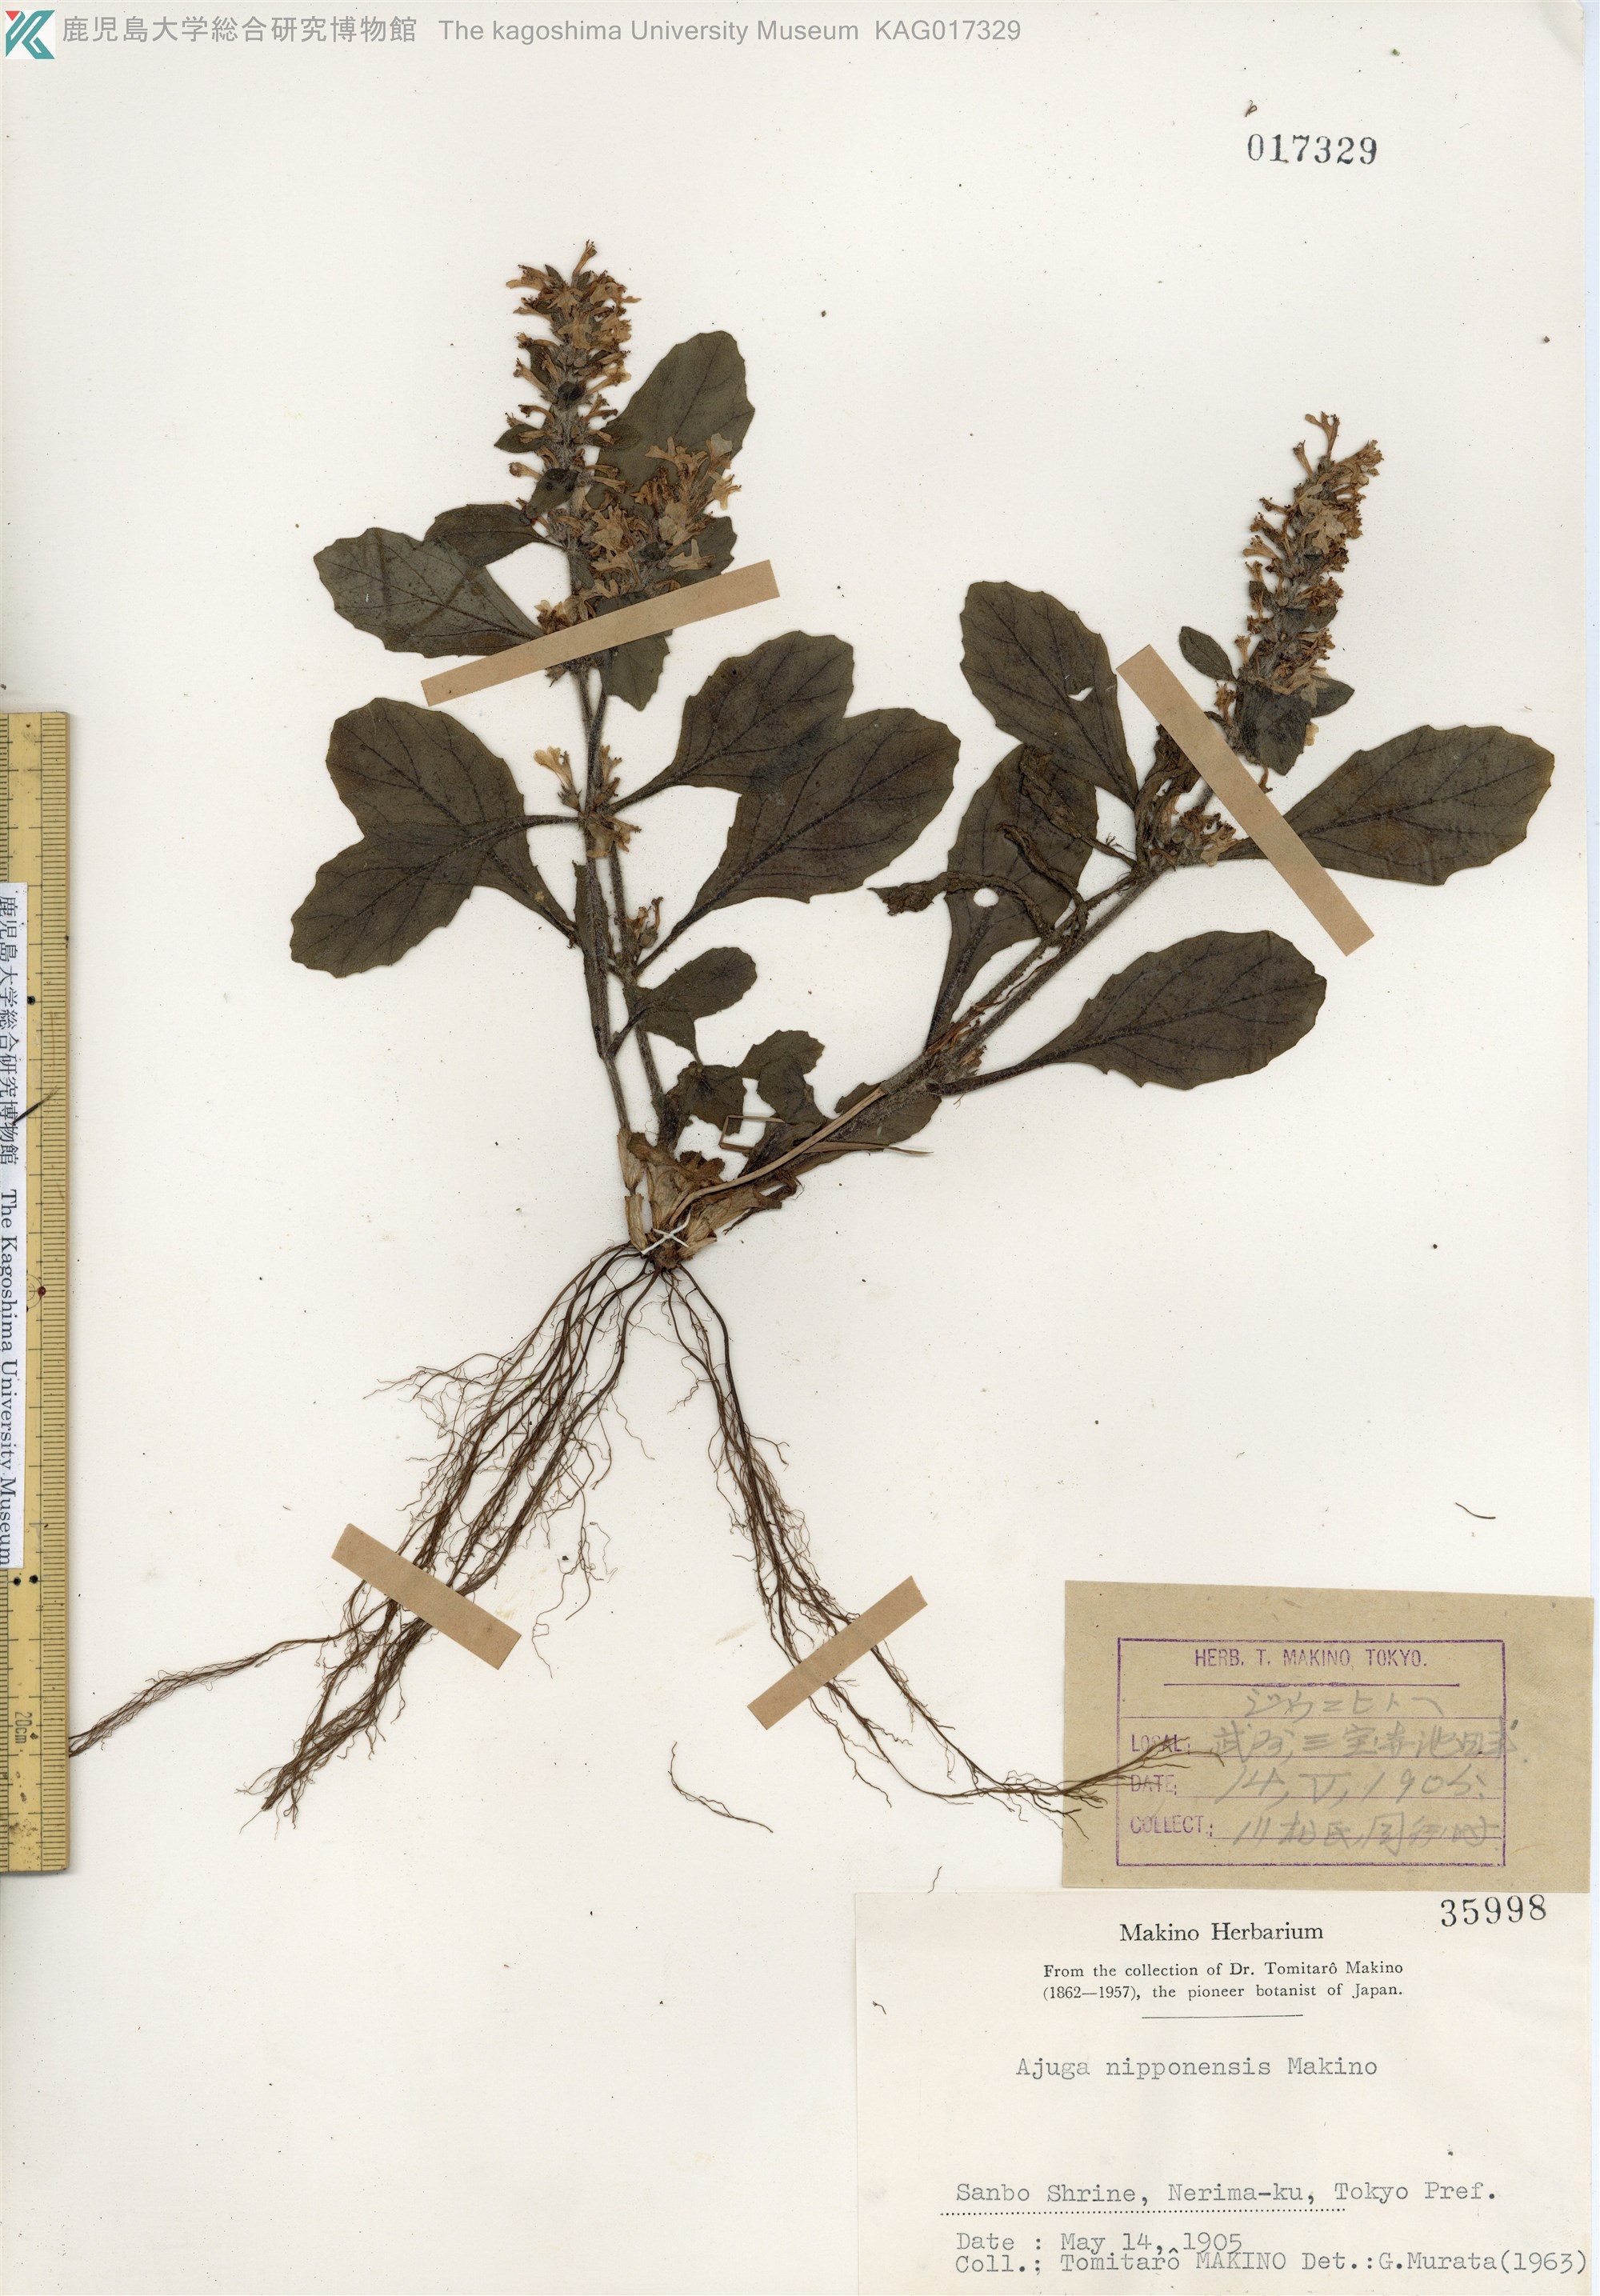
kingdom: Plantae
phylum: Tracheophyta
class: Magnoliopsida
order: Lamiales
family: Lamiaceae
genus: Ajuga
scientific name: Ajuga nipponensis
